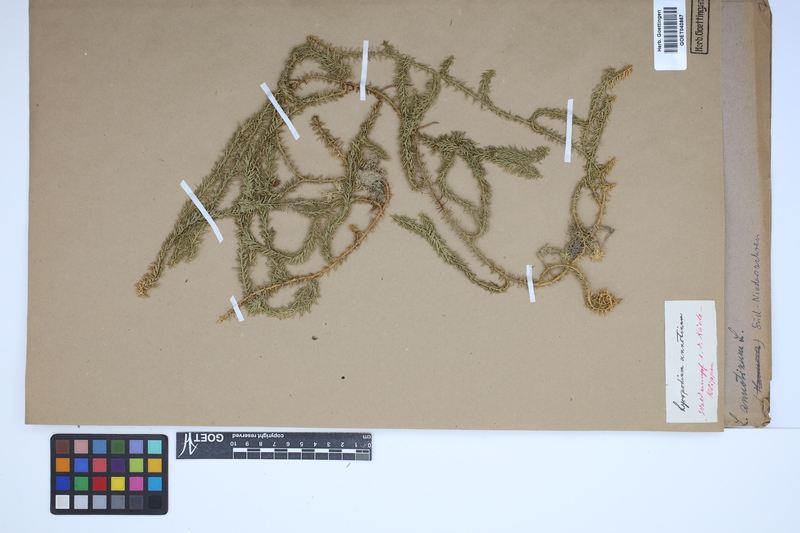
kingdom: Plantae
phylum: Tracheophyta
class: Lycopodiopsida
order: Lycopodiales
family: Lycopodiaceae
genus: Spinulum
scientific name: Spinulum annotinum
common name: Interrupted club-moss
